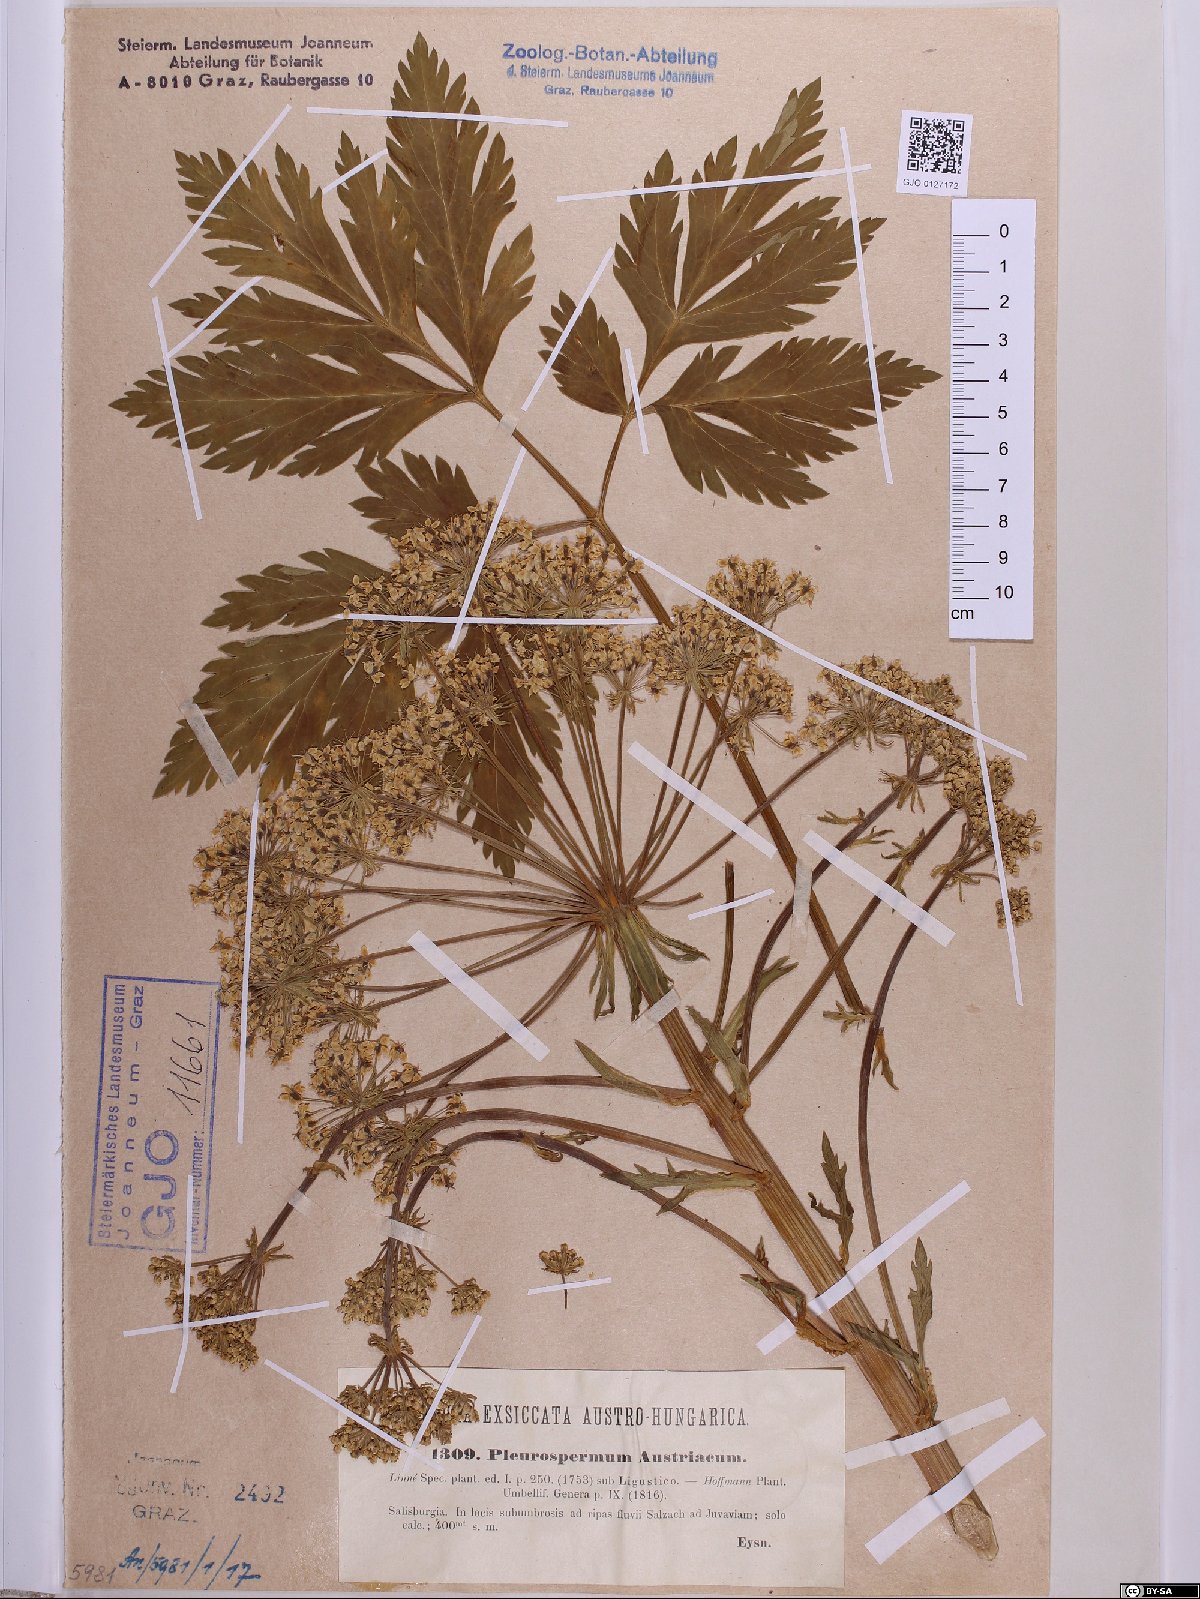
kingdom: Plantae
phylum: Tracheophyta
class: Magnoliopsida
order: Apiales
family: Apiaceae
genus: Pleurospermum
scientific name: Pleurospermum austriacum
